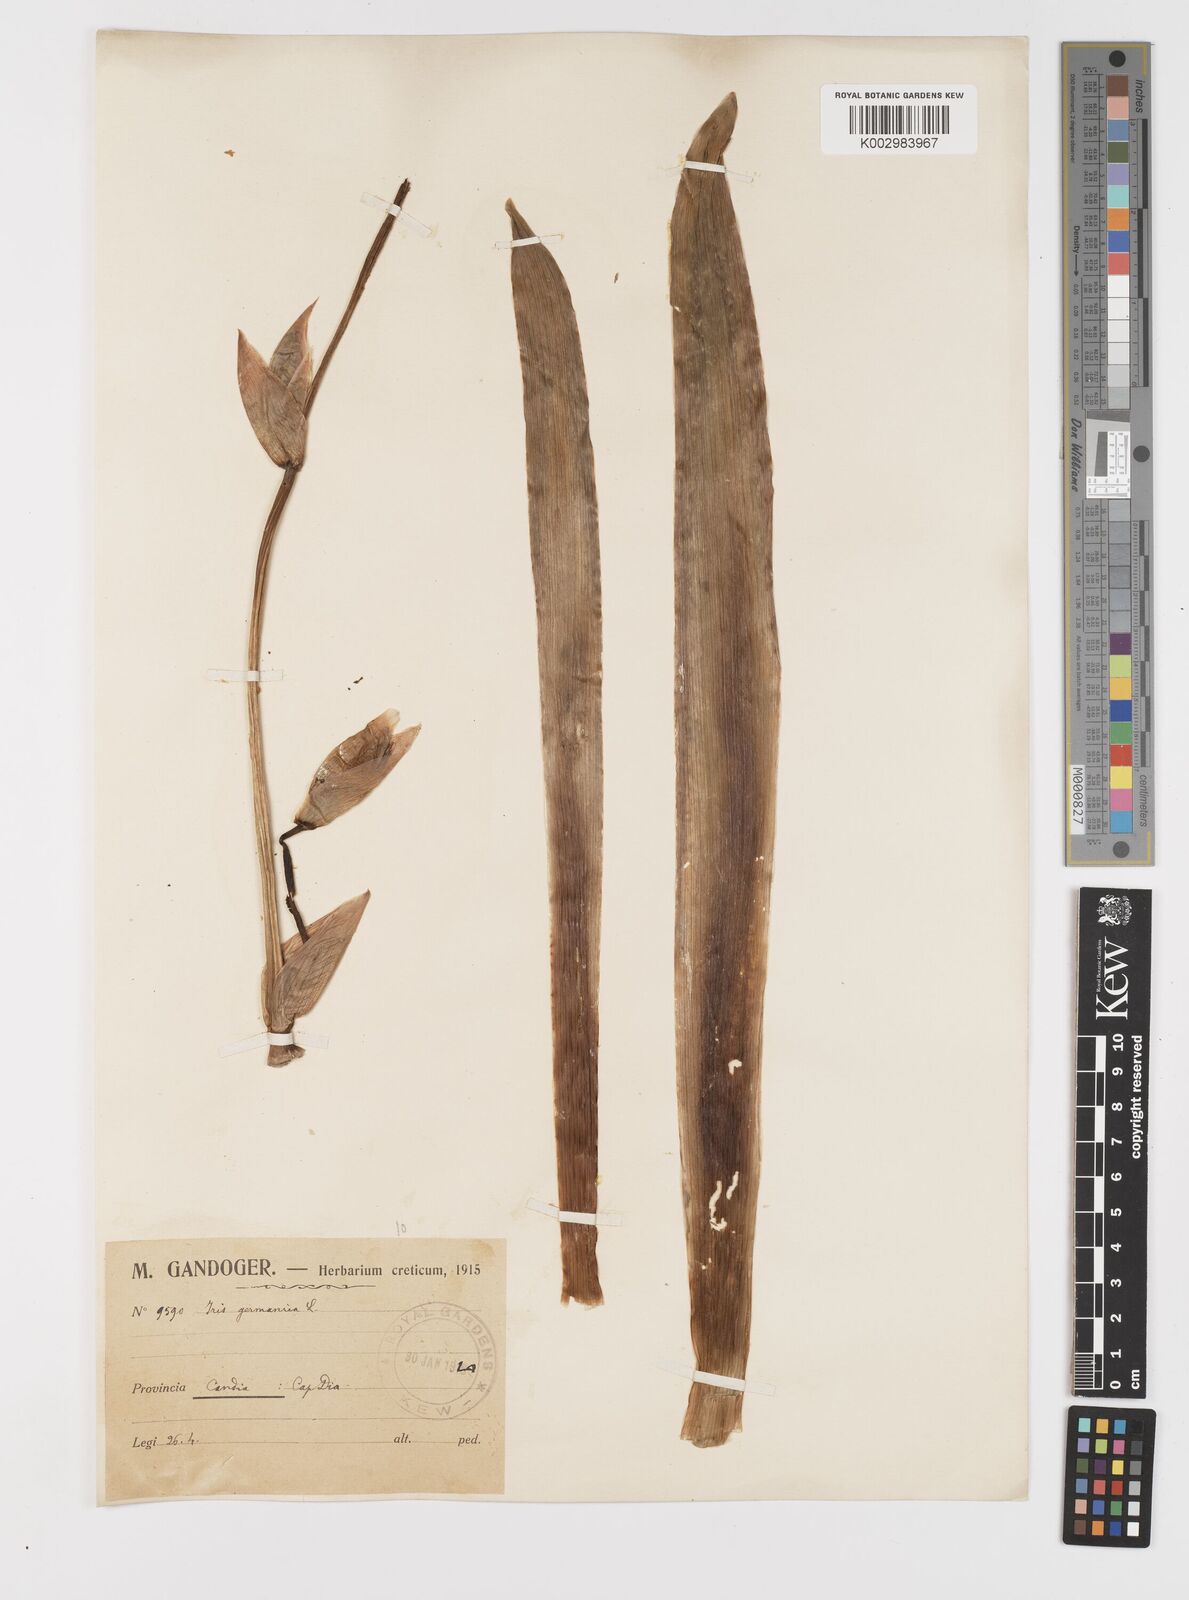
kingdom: Plantae
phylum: Tracheophyta
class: Liliopsida
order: Asparagales
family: Iridaceae
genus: Iris
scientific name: Iris germanica
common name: German iris
